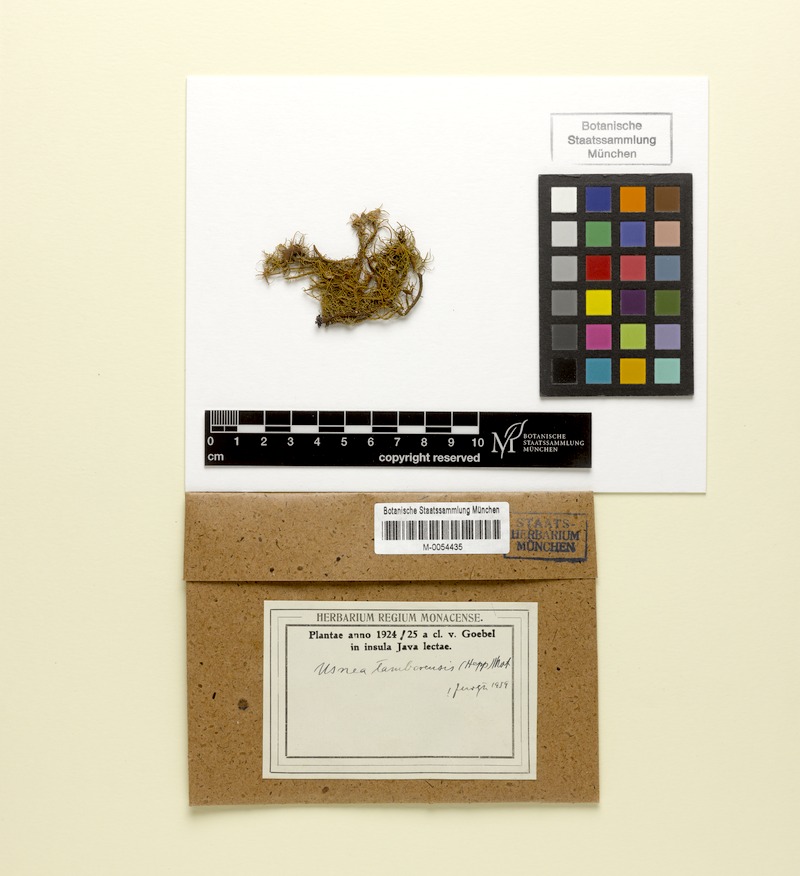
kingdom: Fungi
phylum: Ascomycota
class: Lecanoromycetes
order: Lecanorales
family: Parmeliaceae
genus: Usnea
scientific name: Usnea tamborensis
